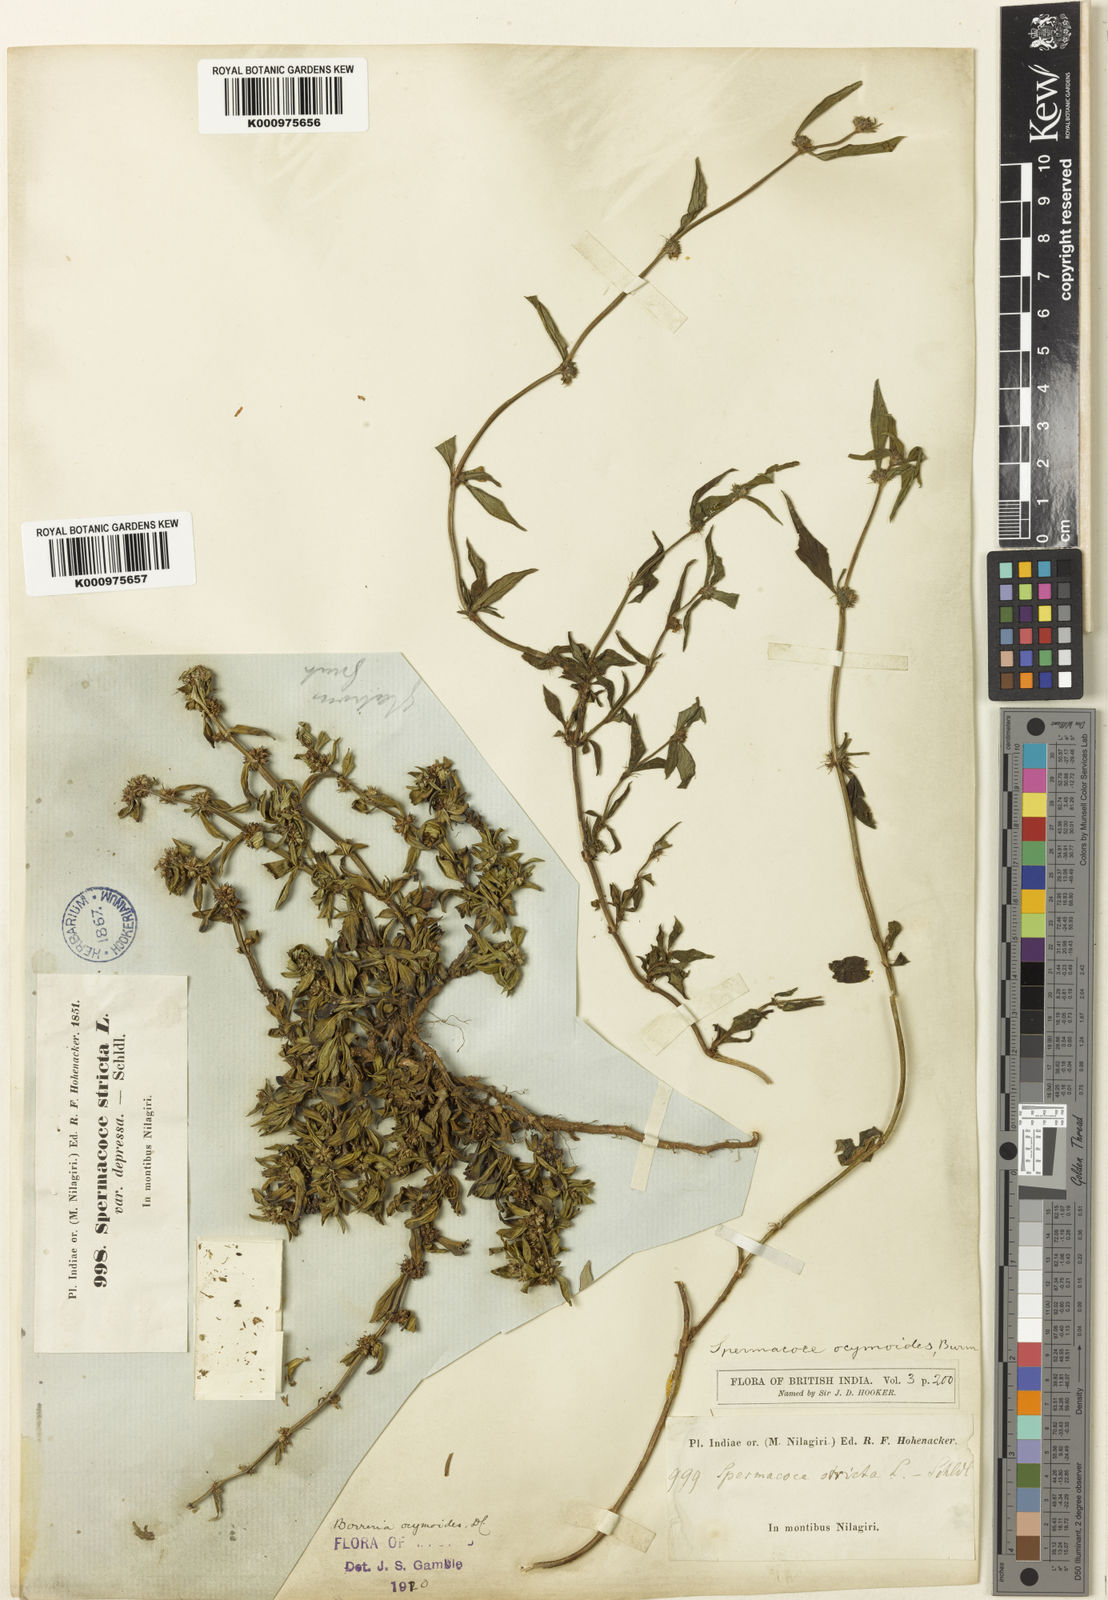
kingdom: Plantae
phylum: Tracheophyta
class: Magnoliopsida
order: Gentianales
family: Rubiaceae
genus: Spermacoce
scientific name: Spermacoce ocymoides
